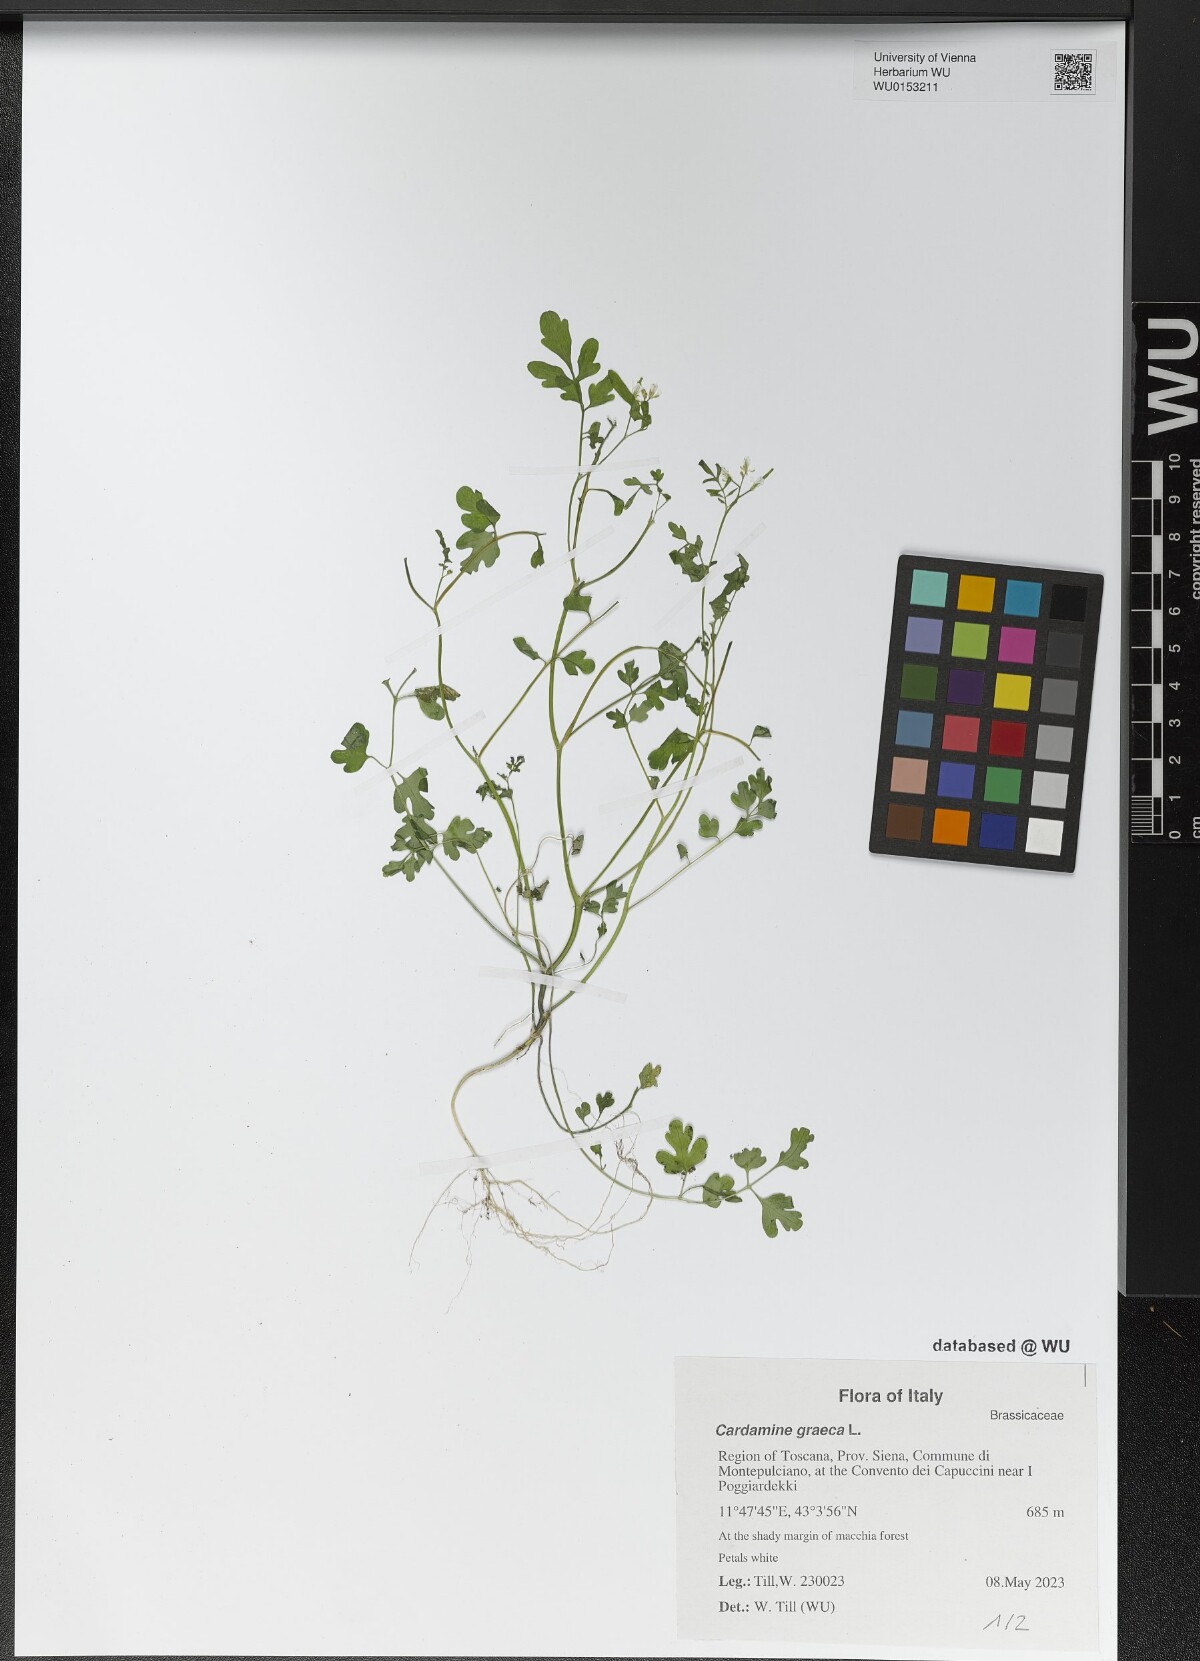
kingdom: Plantae
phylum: Tracheophyta
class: Magnoliopsida
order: Brassicales
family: Brassicaceae
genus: Cardamine
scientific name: Cardamine graeca
